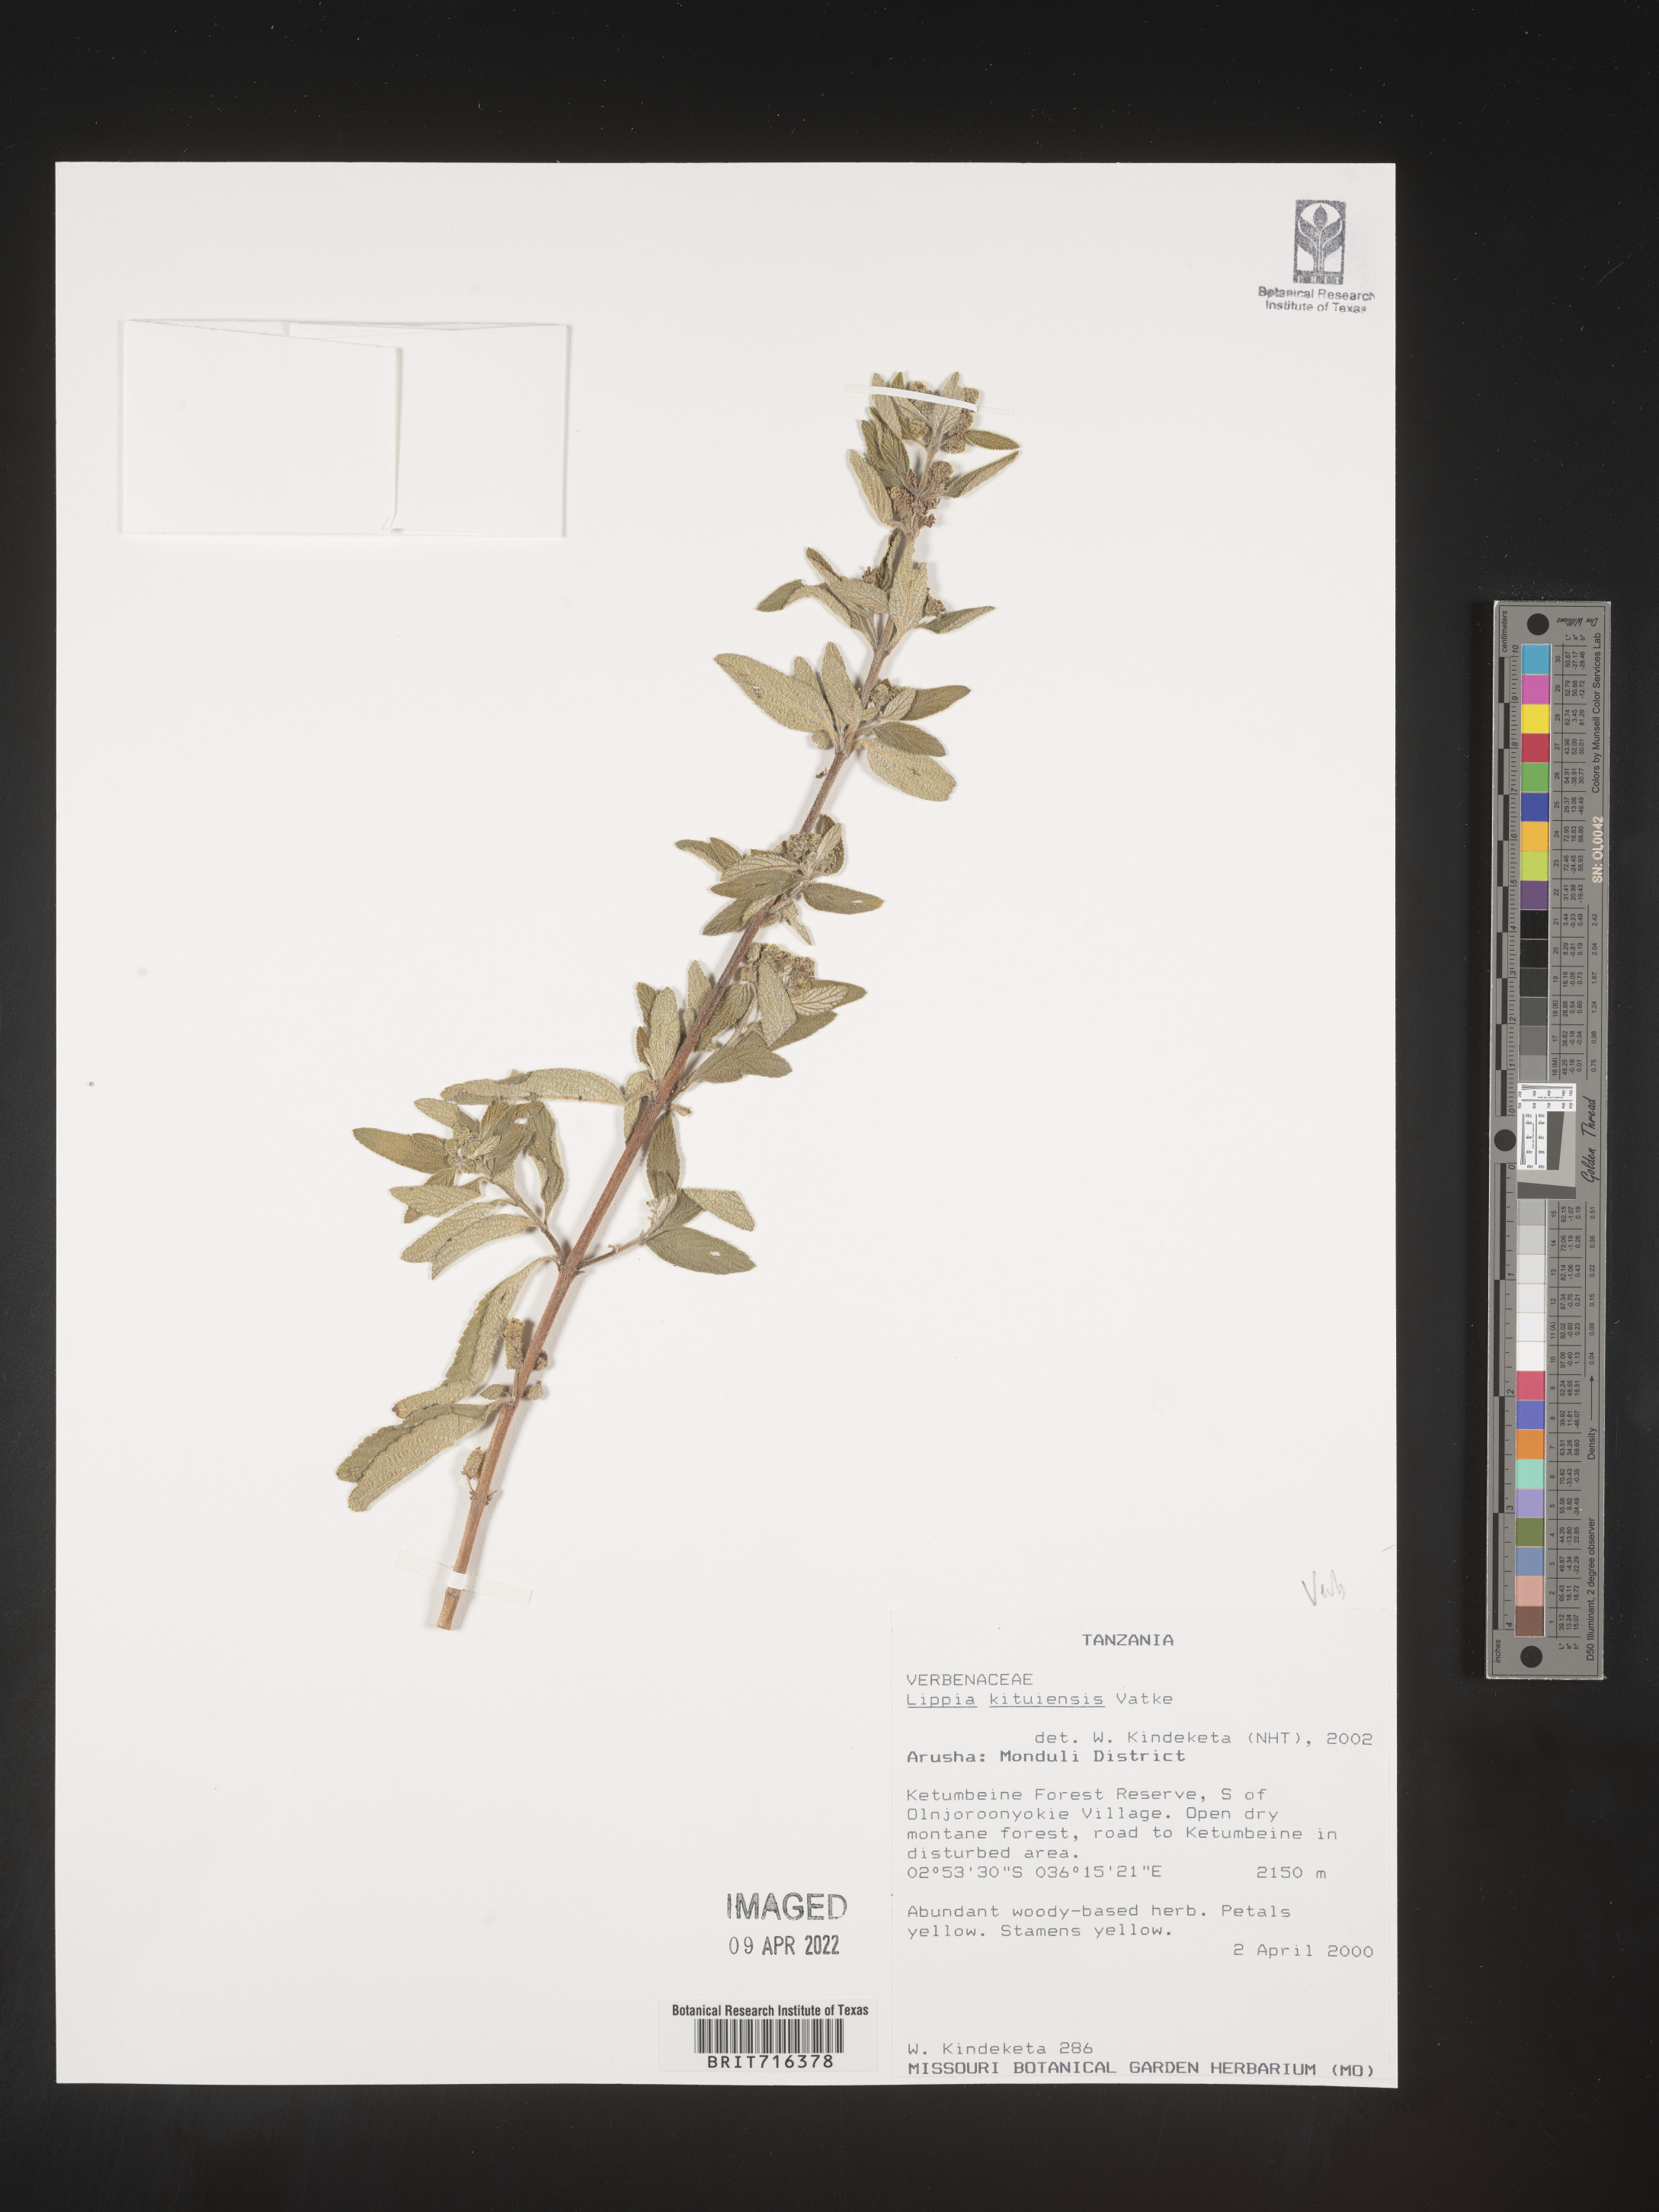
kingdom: Plantae
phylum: Tracheophyta
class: Magnoliopsida
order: Lamiales
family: Verbenaceae
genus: Lippia
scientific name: Lippia
